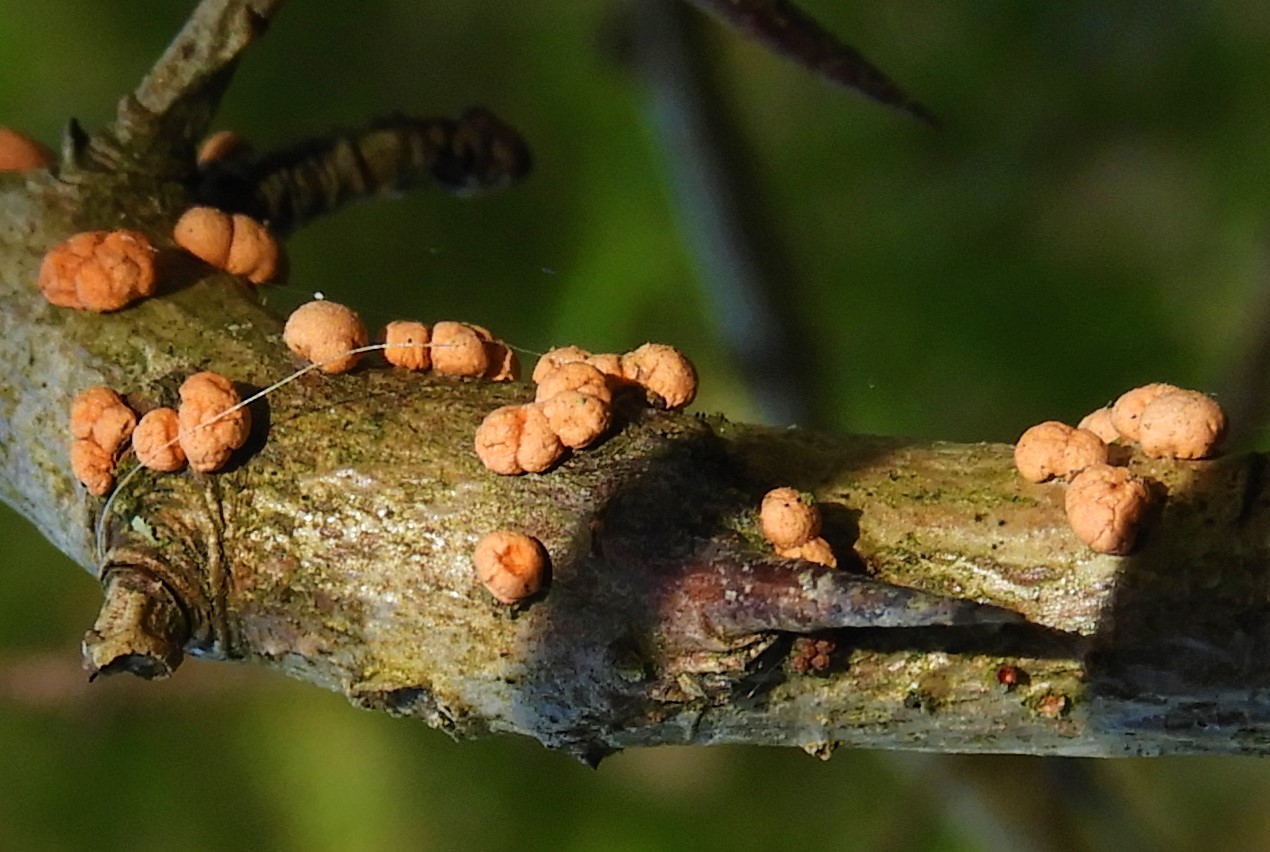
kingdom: Fungi
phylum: Ascomycota
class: Sordariomycetes
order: Hypocreales
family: Nectriaceae
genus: Nectria
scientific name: Nectria cinnabarina
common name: almindelig cinnobersvamp
